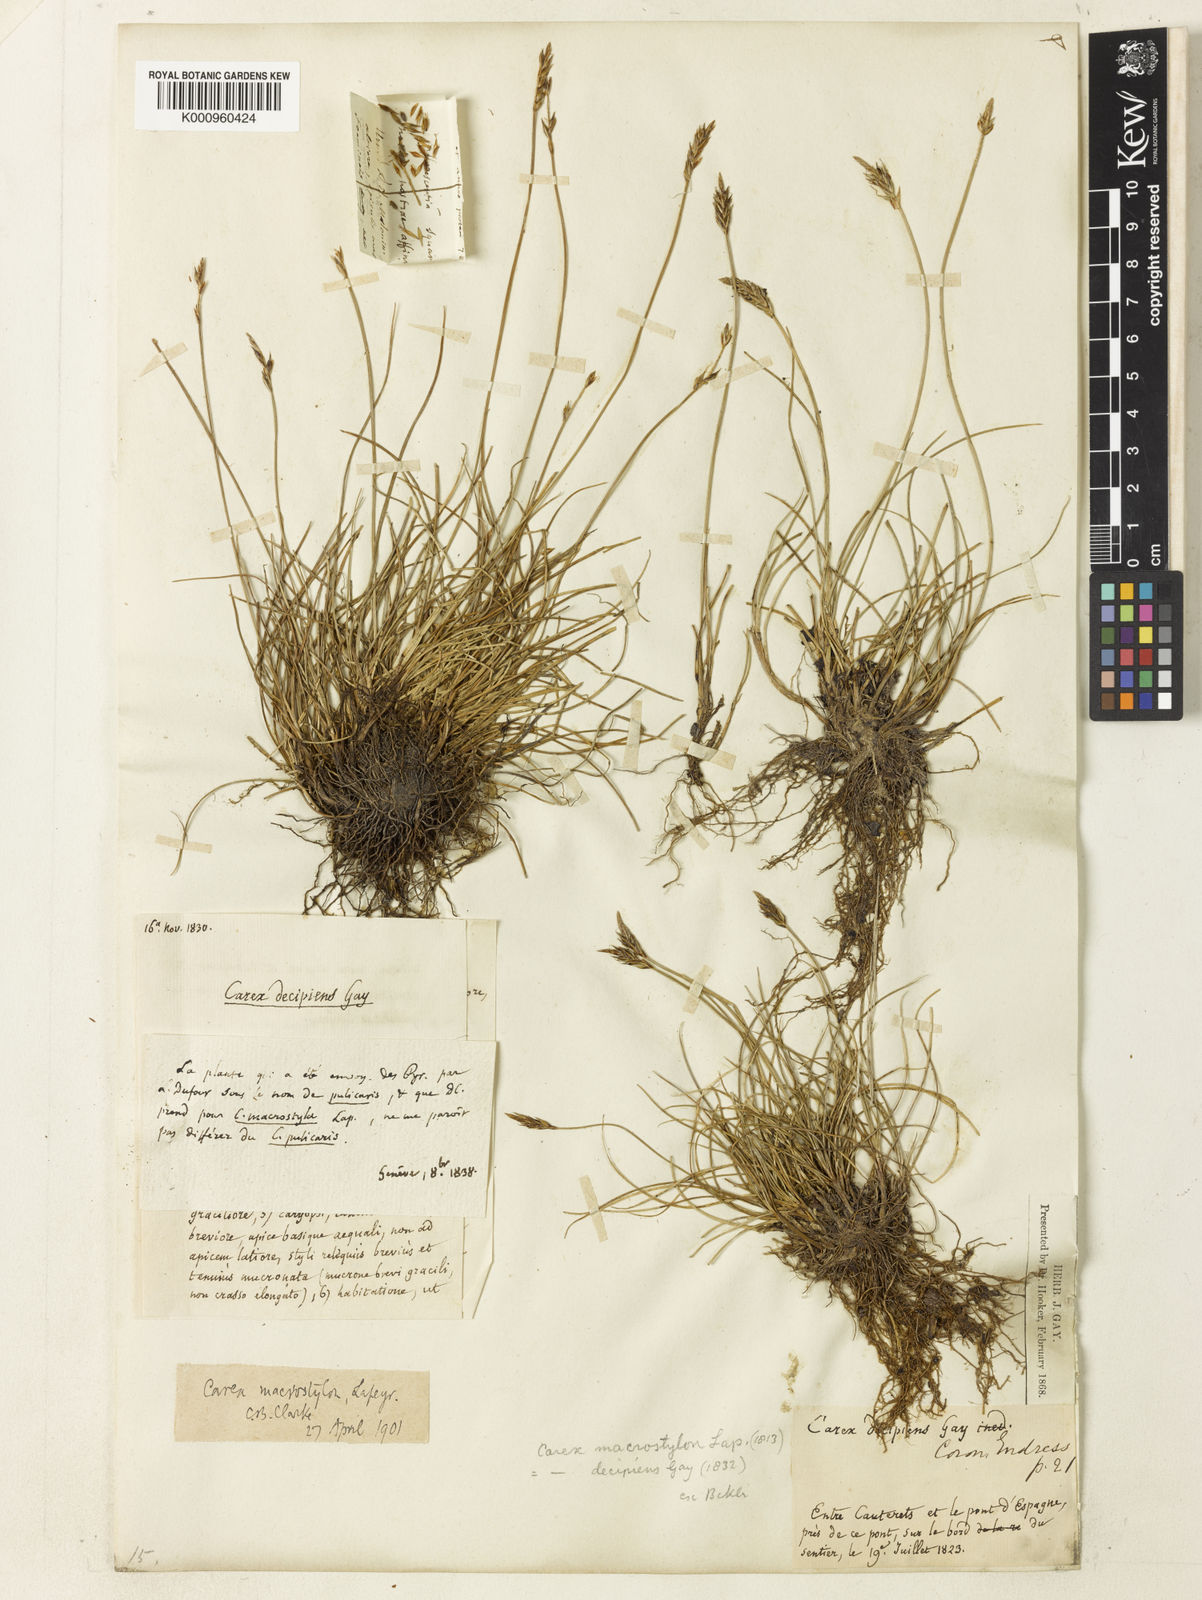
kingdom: Plantae
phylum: Tracheophyta
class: Liliopsida
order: Poales
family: Cyperaceae
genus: Carex
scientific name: Carex
